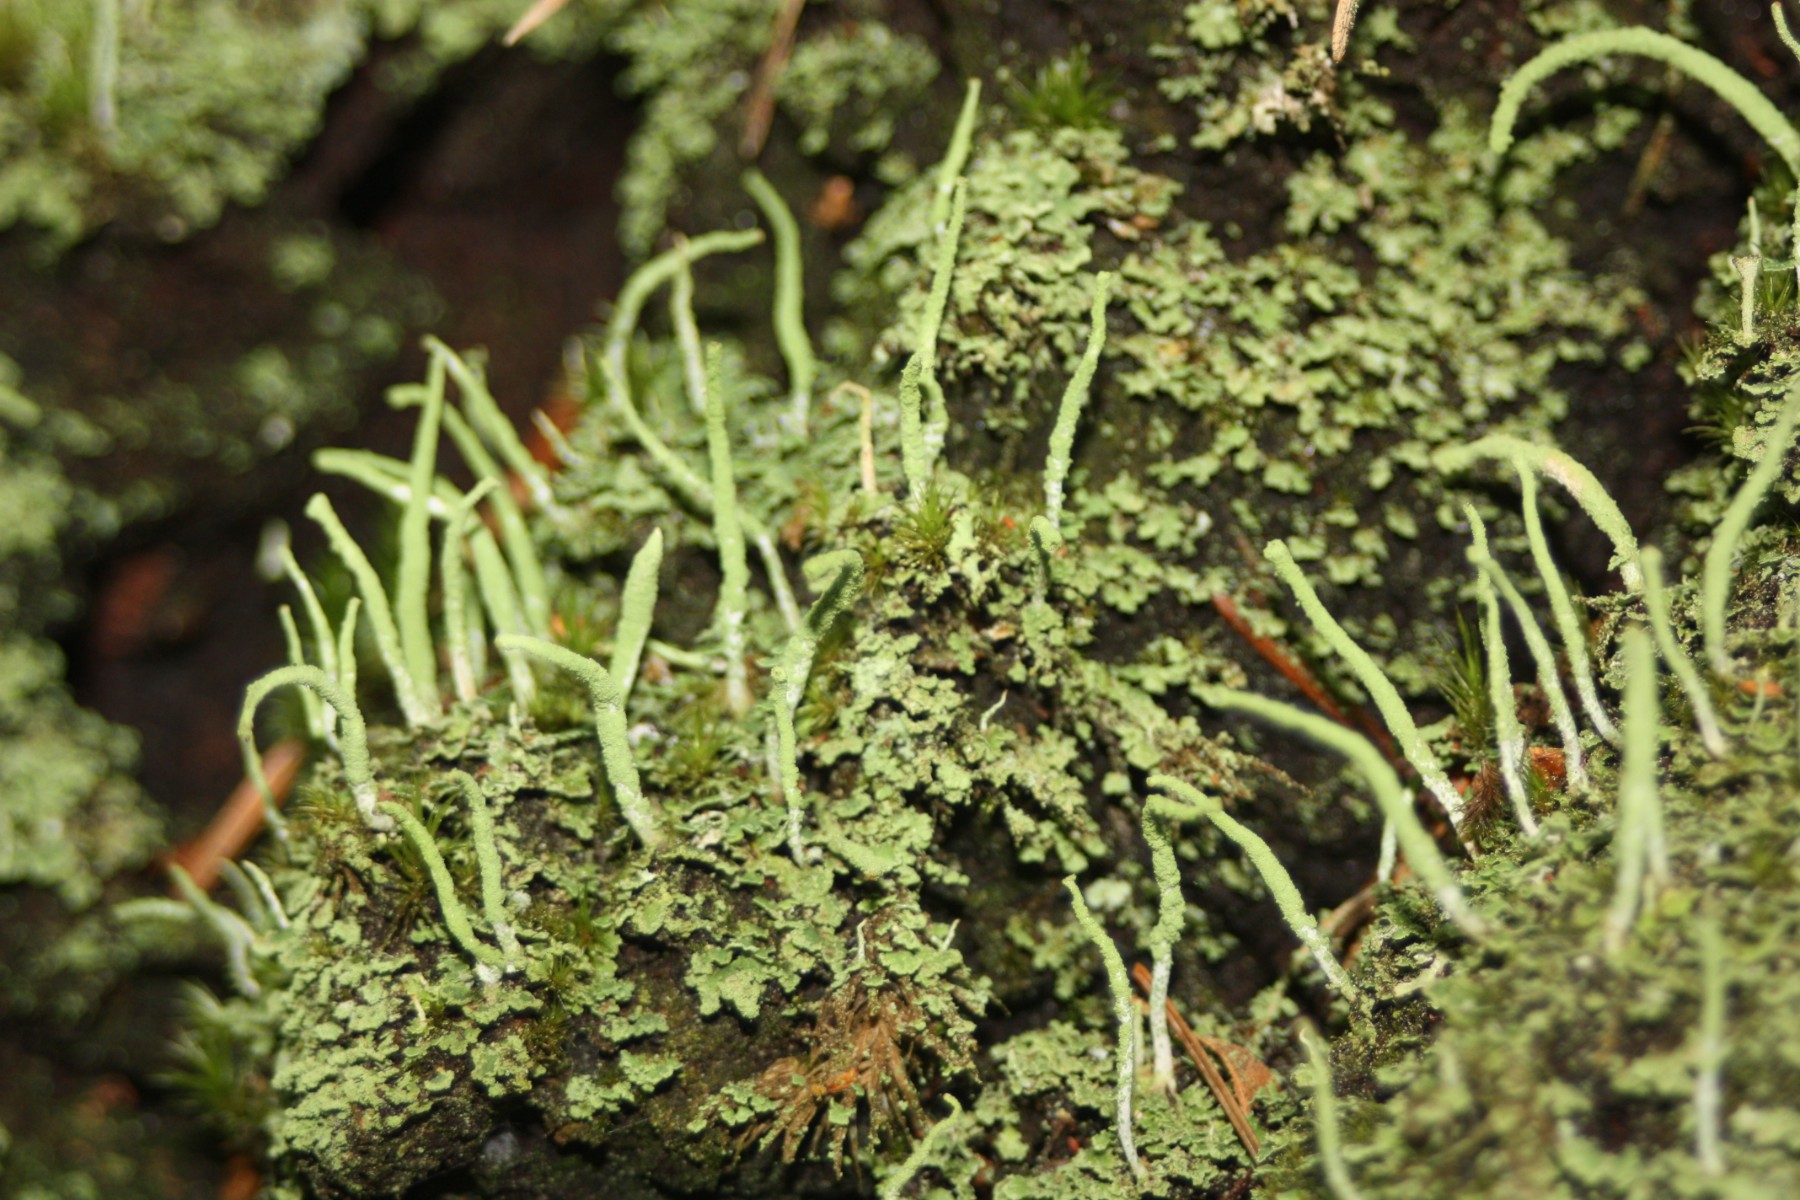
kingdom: Fungi
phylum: Ascomycota
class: Lecanoromycetes
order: Lecanorales
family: Cladoniaceae
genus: Cladonia
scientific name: Cladonia coniocraea
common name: træfods-bægerlav
